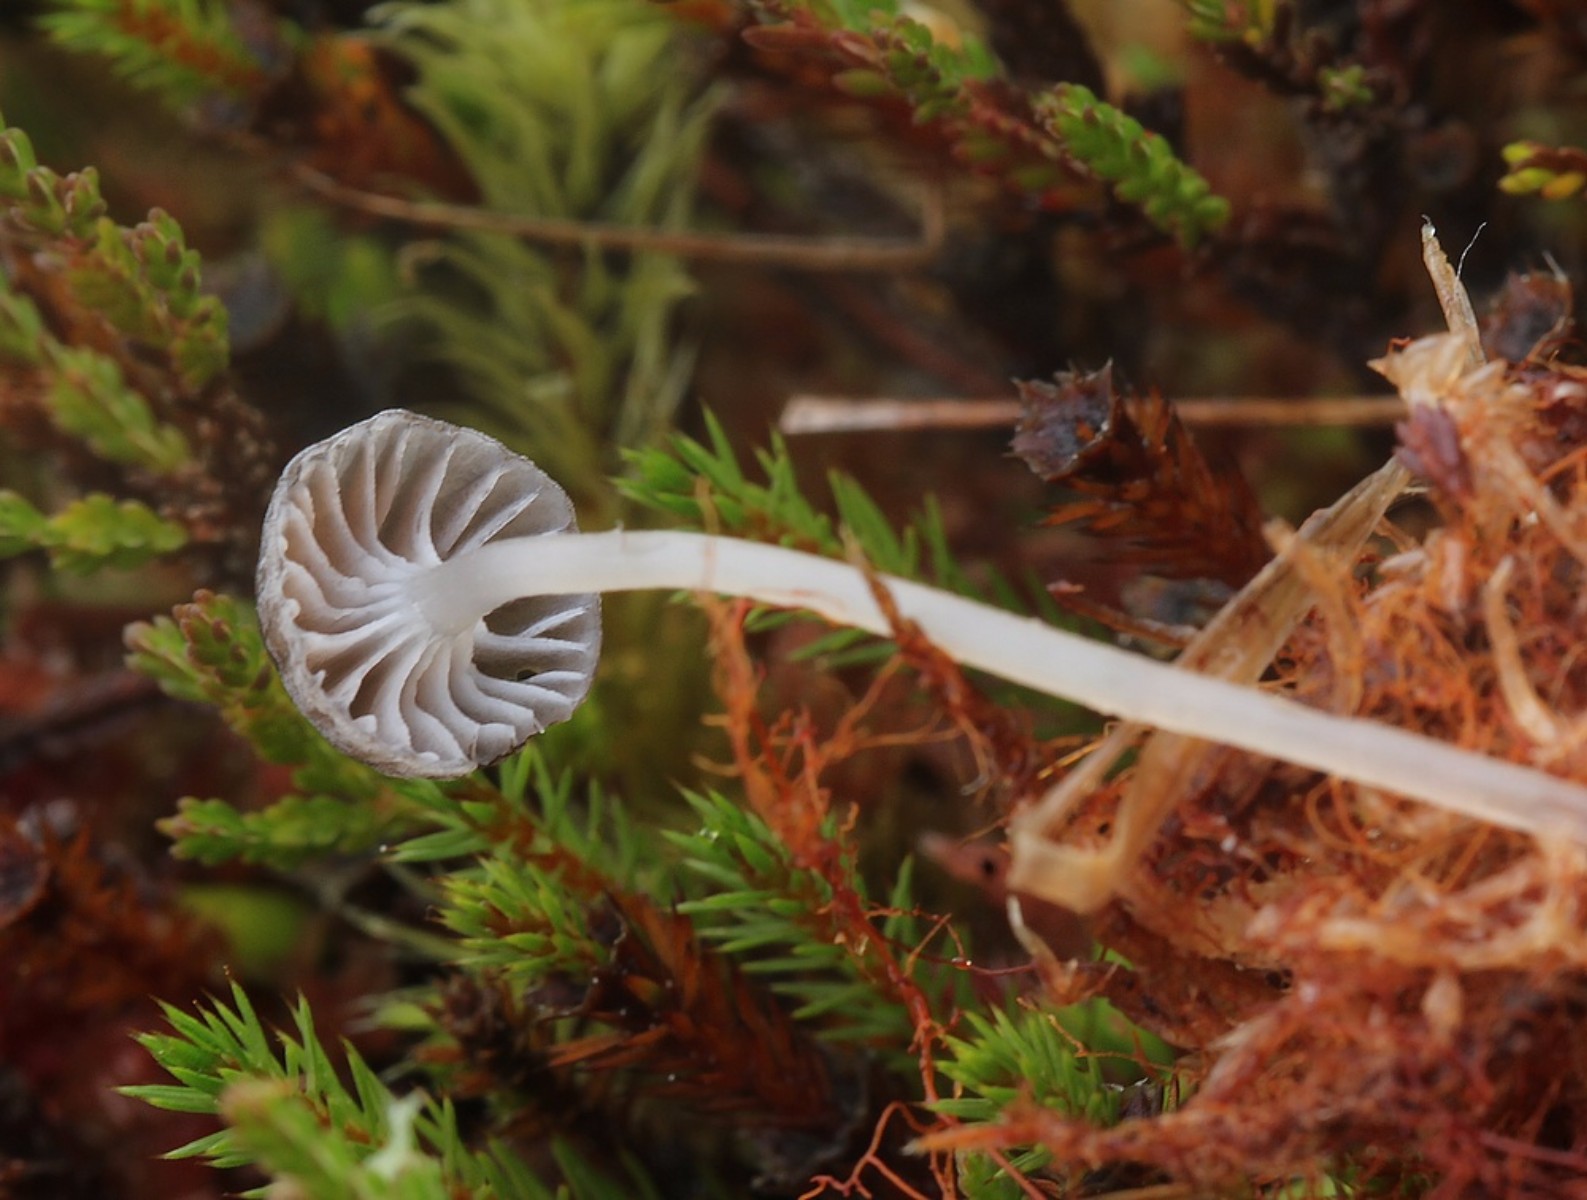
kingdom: Fungi
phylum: Basidiomycota
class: Agaricomycetes
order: Agaricales
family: Mycenaceae
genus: Mycena
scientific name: Mycena concolor
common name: tørvemos-huesvamp
